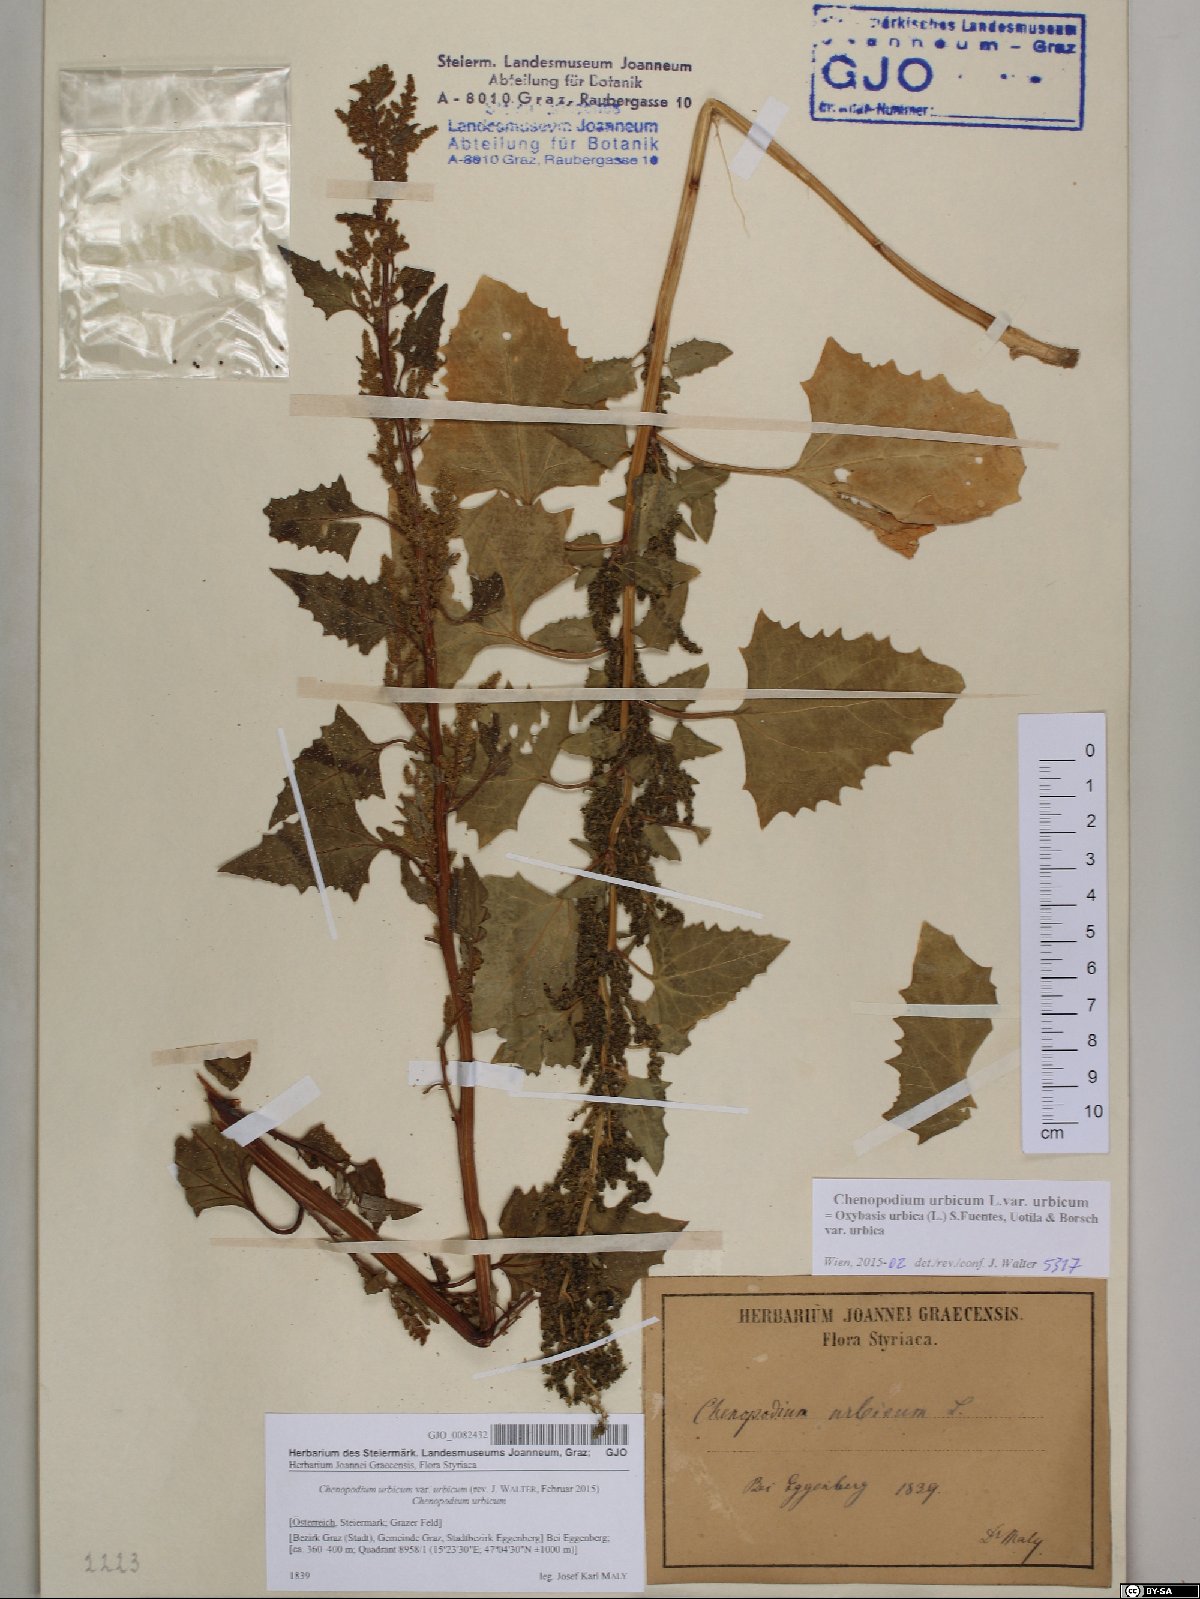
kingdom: Plantae
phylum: Tracheophyta
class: Magnoliopsida
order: Caryophyllales
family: Amaranthaceae
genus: Oxybasis
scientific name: Oxybasis urbica
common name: City goosefoot
